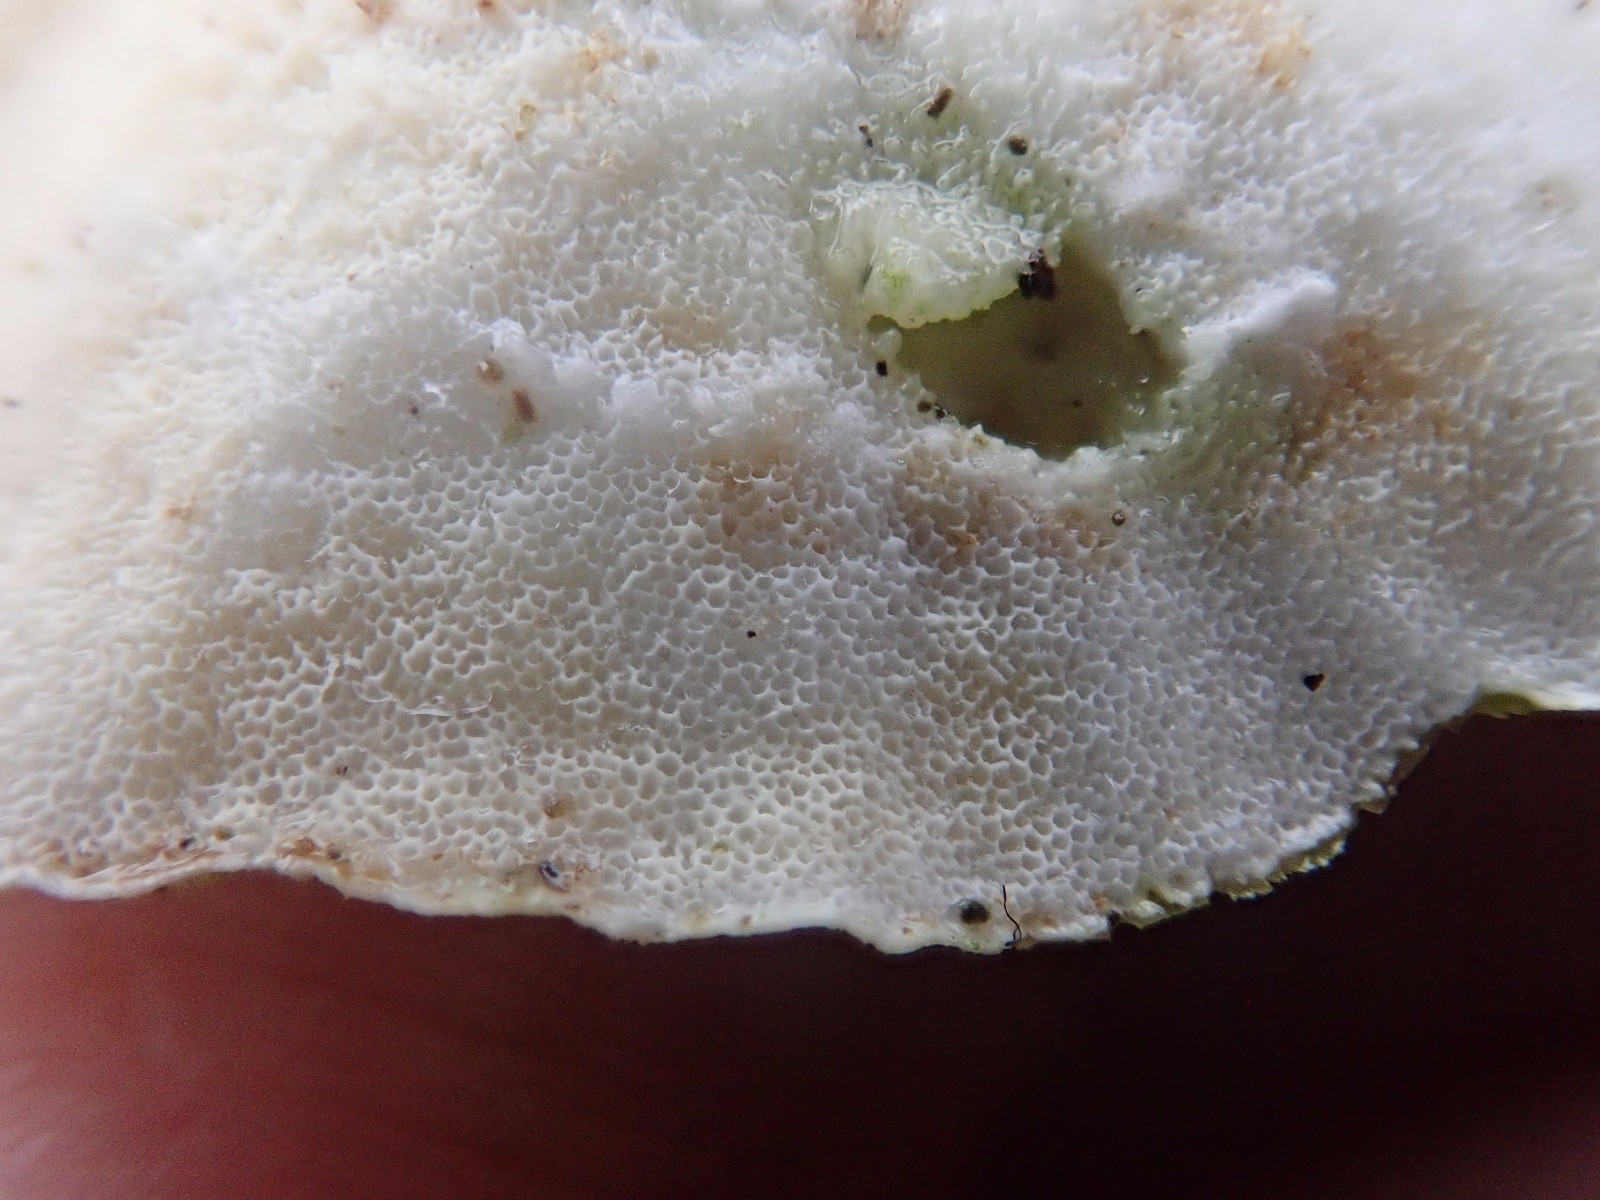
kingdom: Fungi
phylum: Basidiomycota
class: Agaricomycetes
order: Polyporales
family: Polyporaceae
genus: Trametes
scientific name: Trametes hirsuta
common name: håret læderporesvamp
